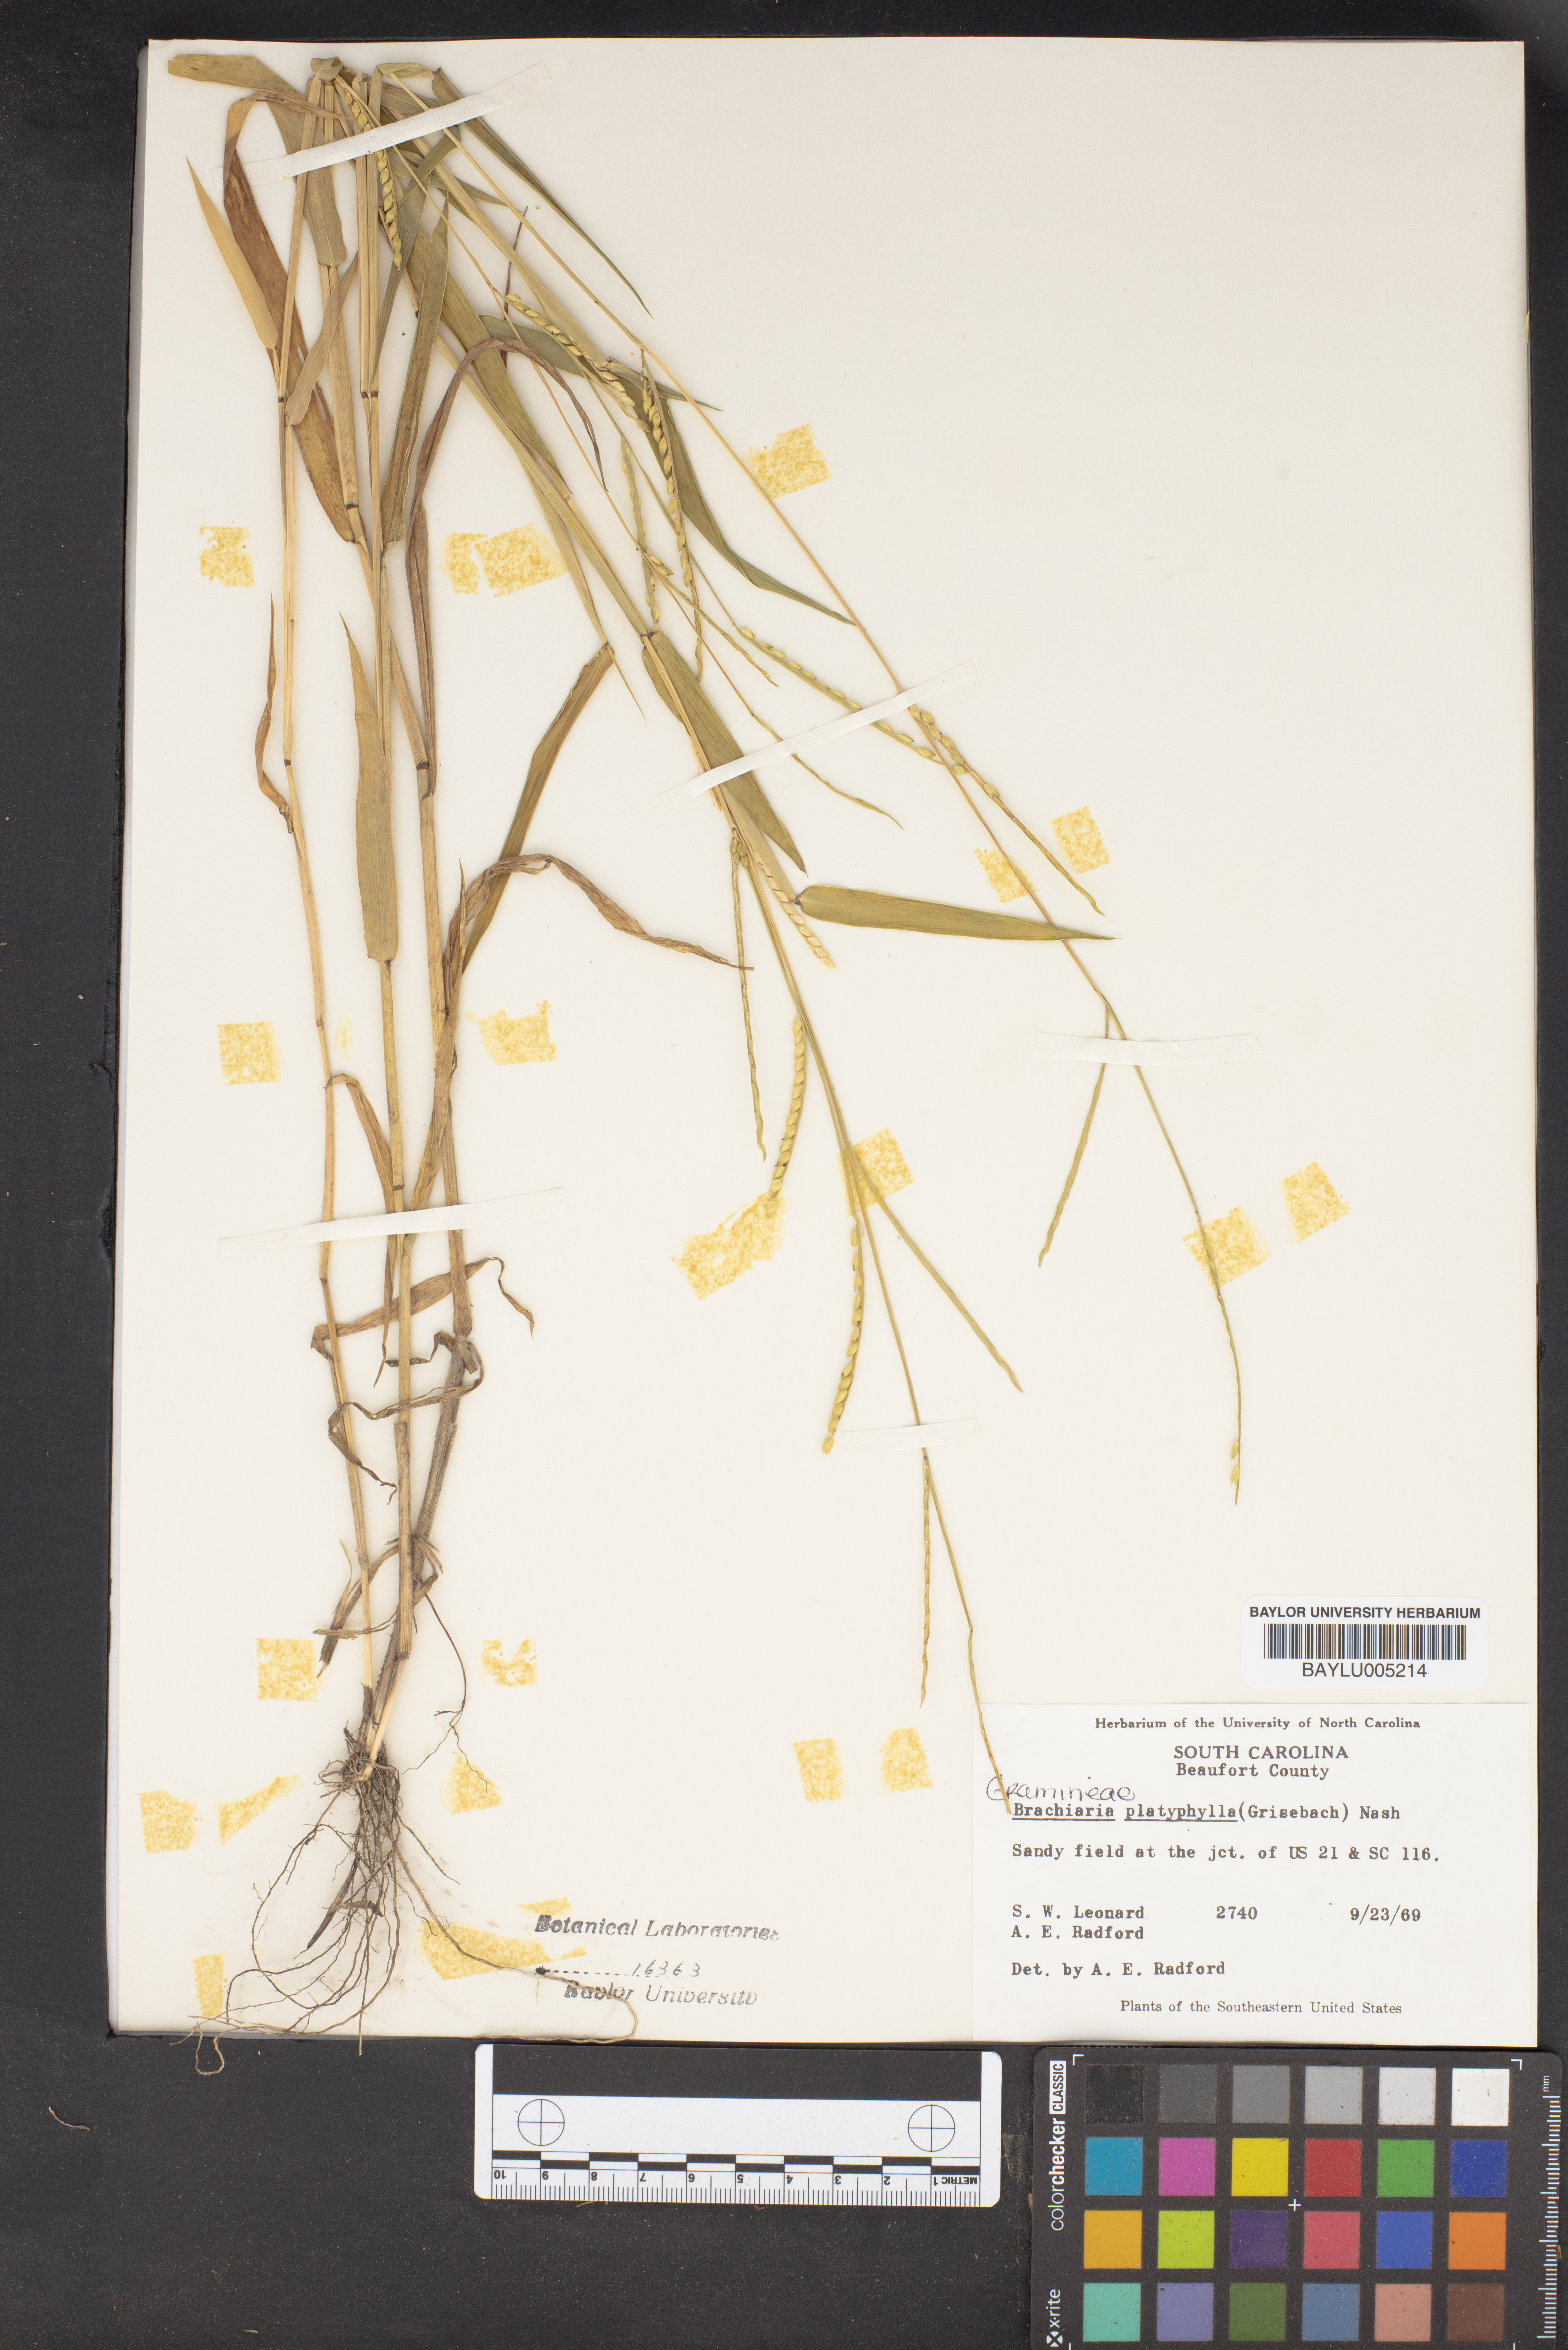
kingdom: Plantae
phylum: Tracheophyta
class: Liliopsida
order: Poales
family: Poaceae
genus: Urochloa
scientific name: Urochloa platyphylla
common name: White para grass
